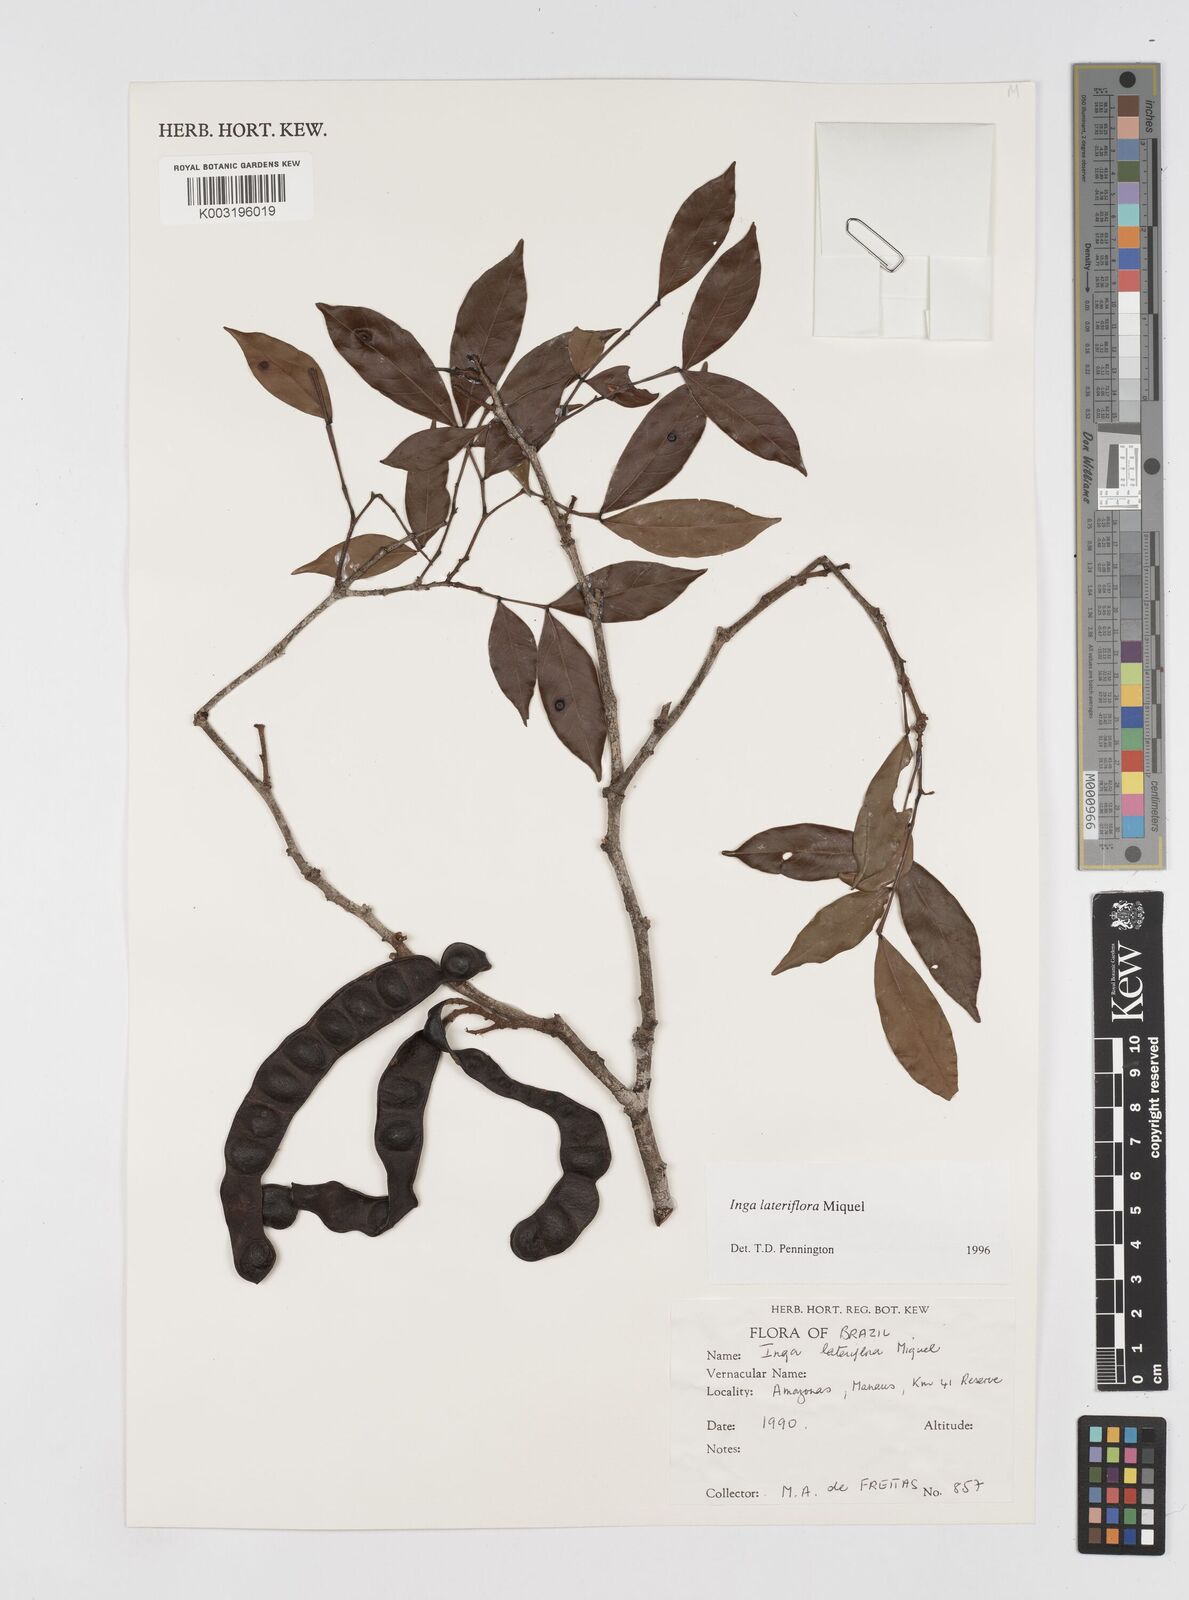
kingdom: Plantae
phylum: Tracheophyta
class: Magnoliopsida
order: Fabales
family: Fabaceae
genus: Inga
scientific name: Inga lateriflora
